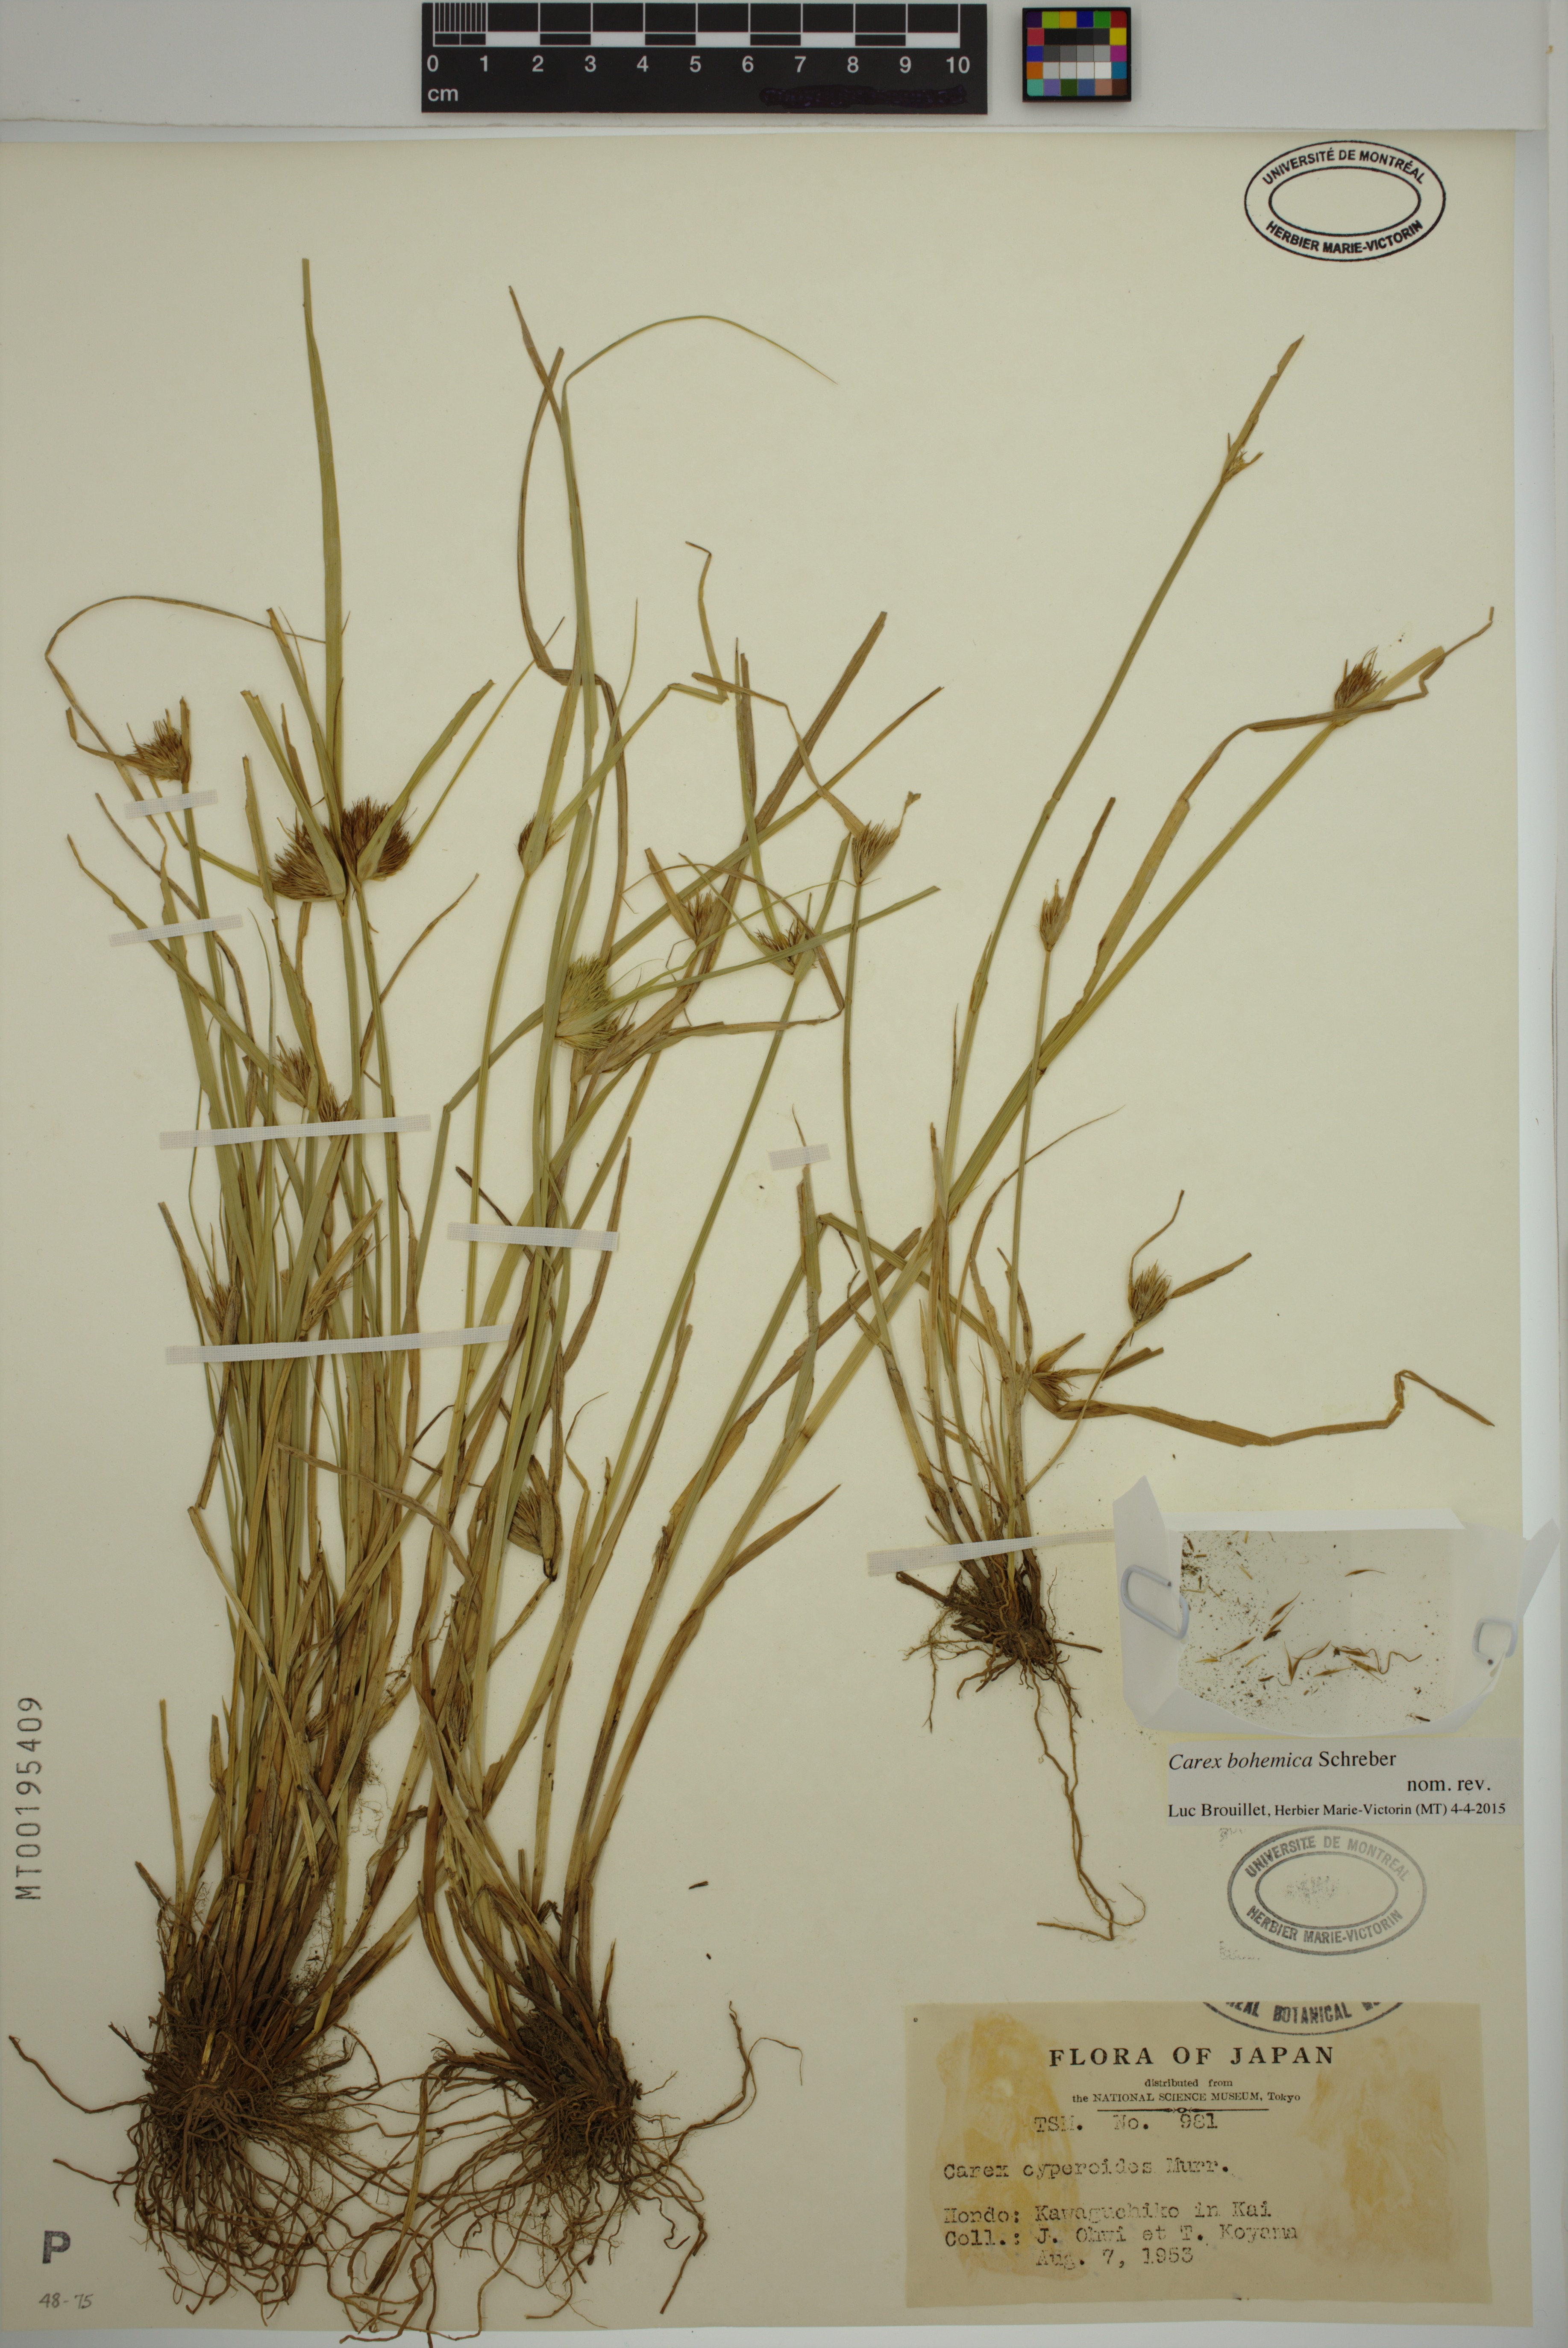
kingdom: Plantae
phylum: Tracheophyta
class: Liliopsida
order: Poales
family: Cyperaceae
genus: Carex
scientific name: Carex bohemica
